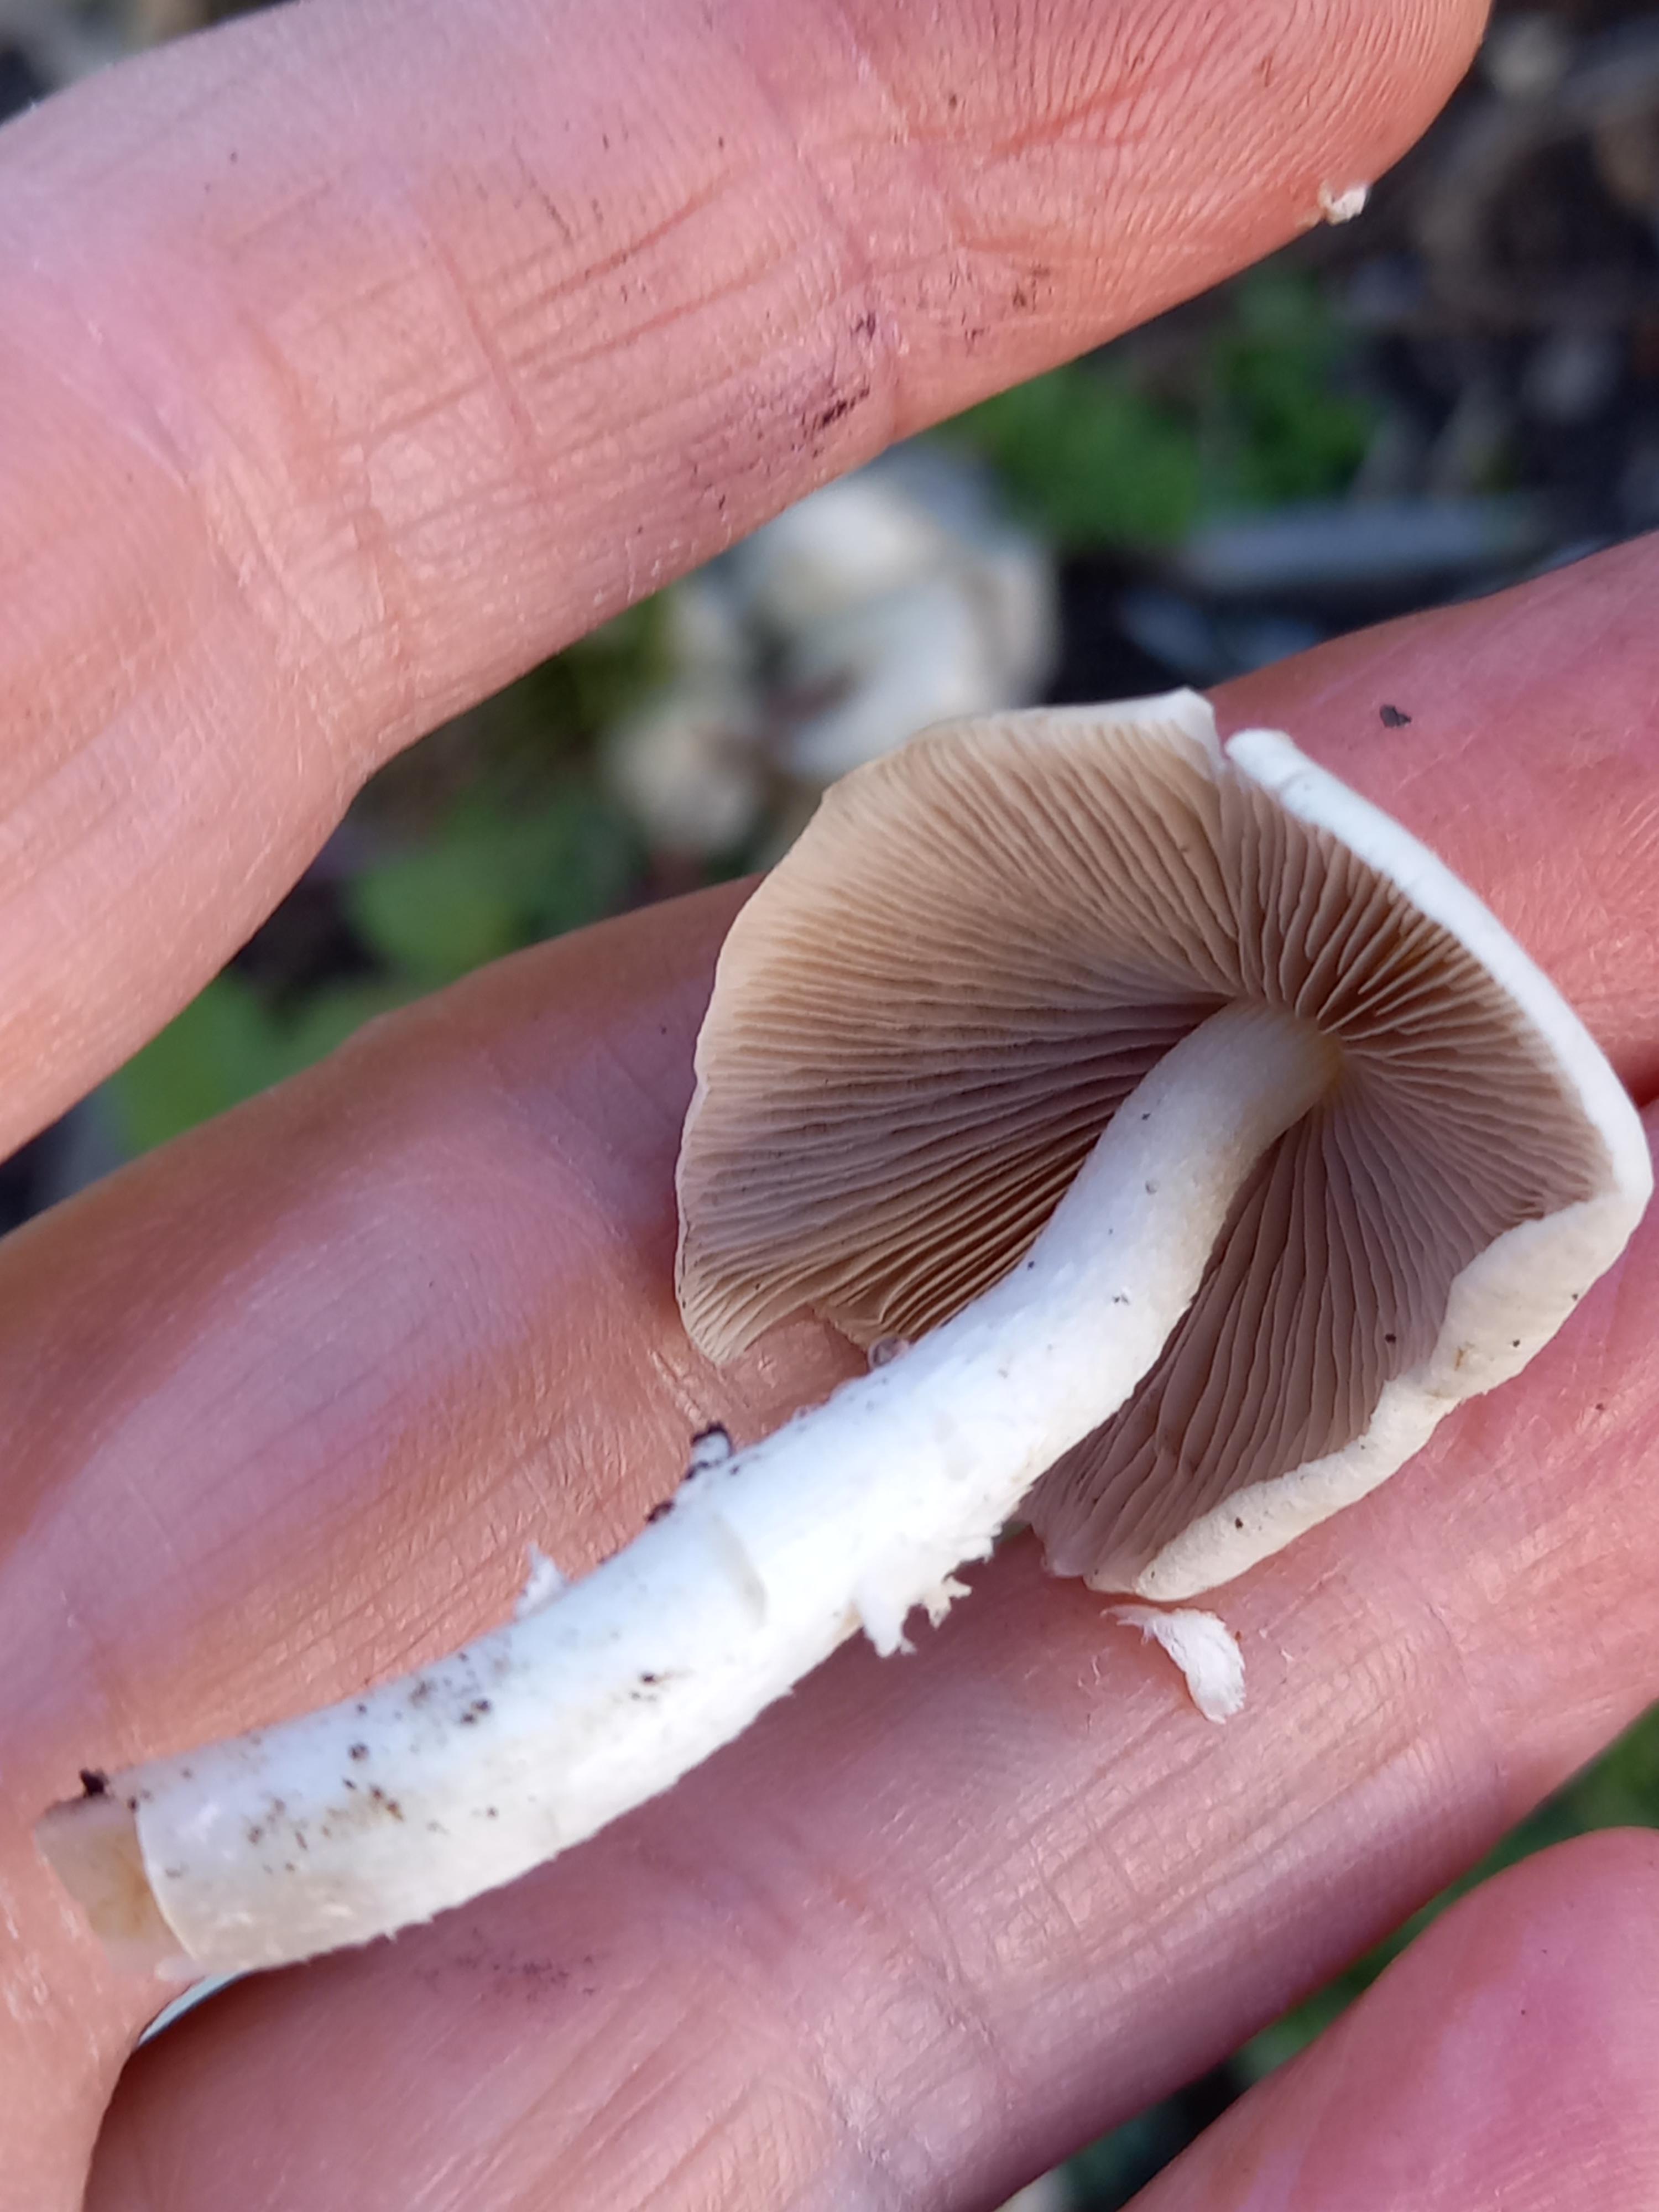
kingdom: Fungi
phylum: Basidiomycota
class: Agaricomycetes
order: Agaricales
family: Psathyrellaceae
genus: Candolleomyces
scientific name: Candolleomyces candolleanus
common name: Candolles mørkhat
